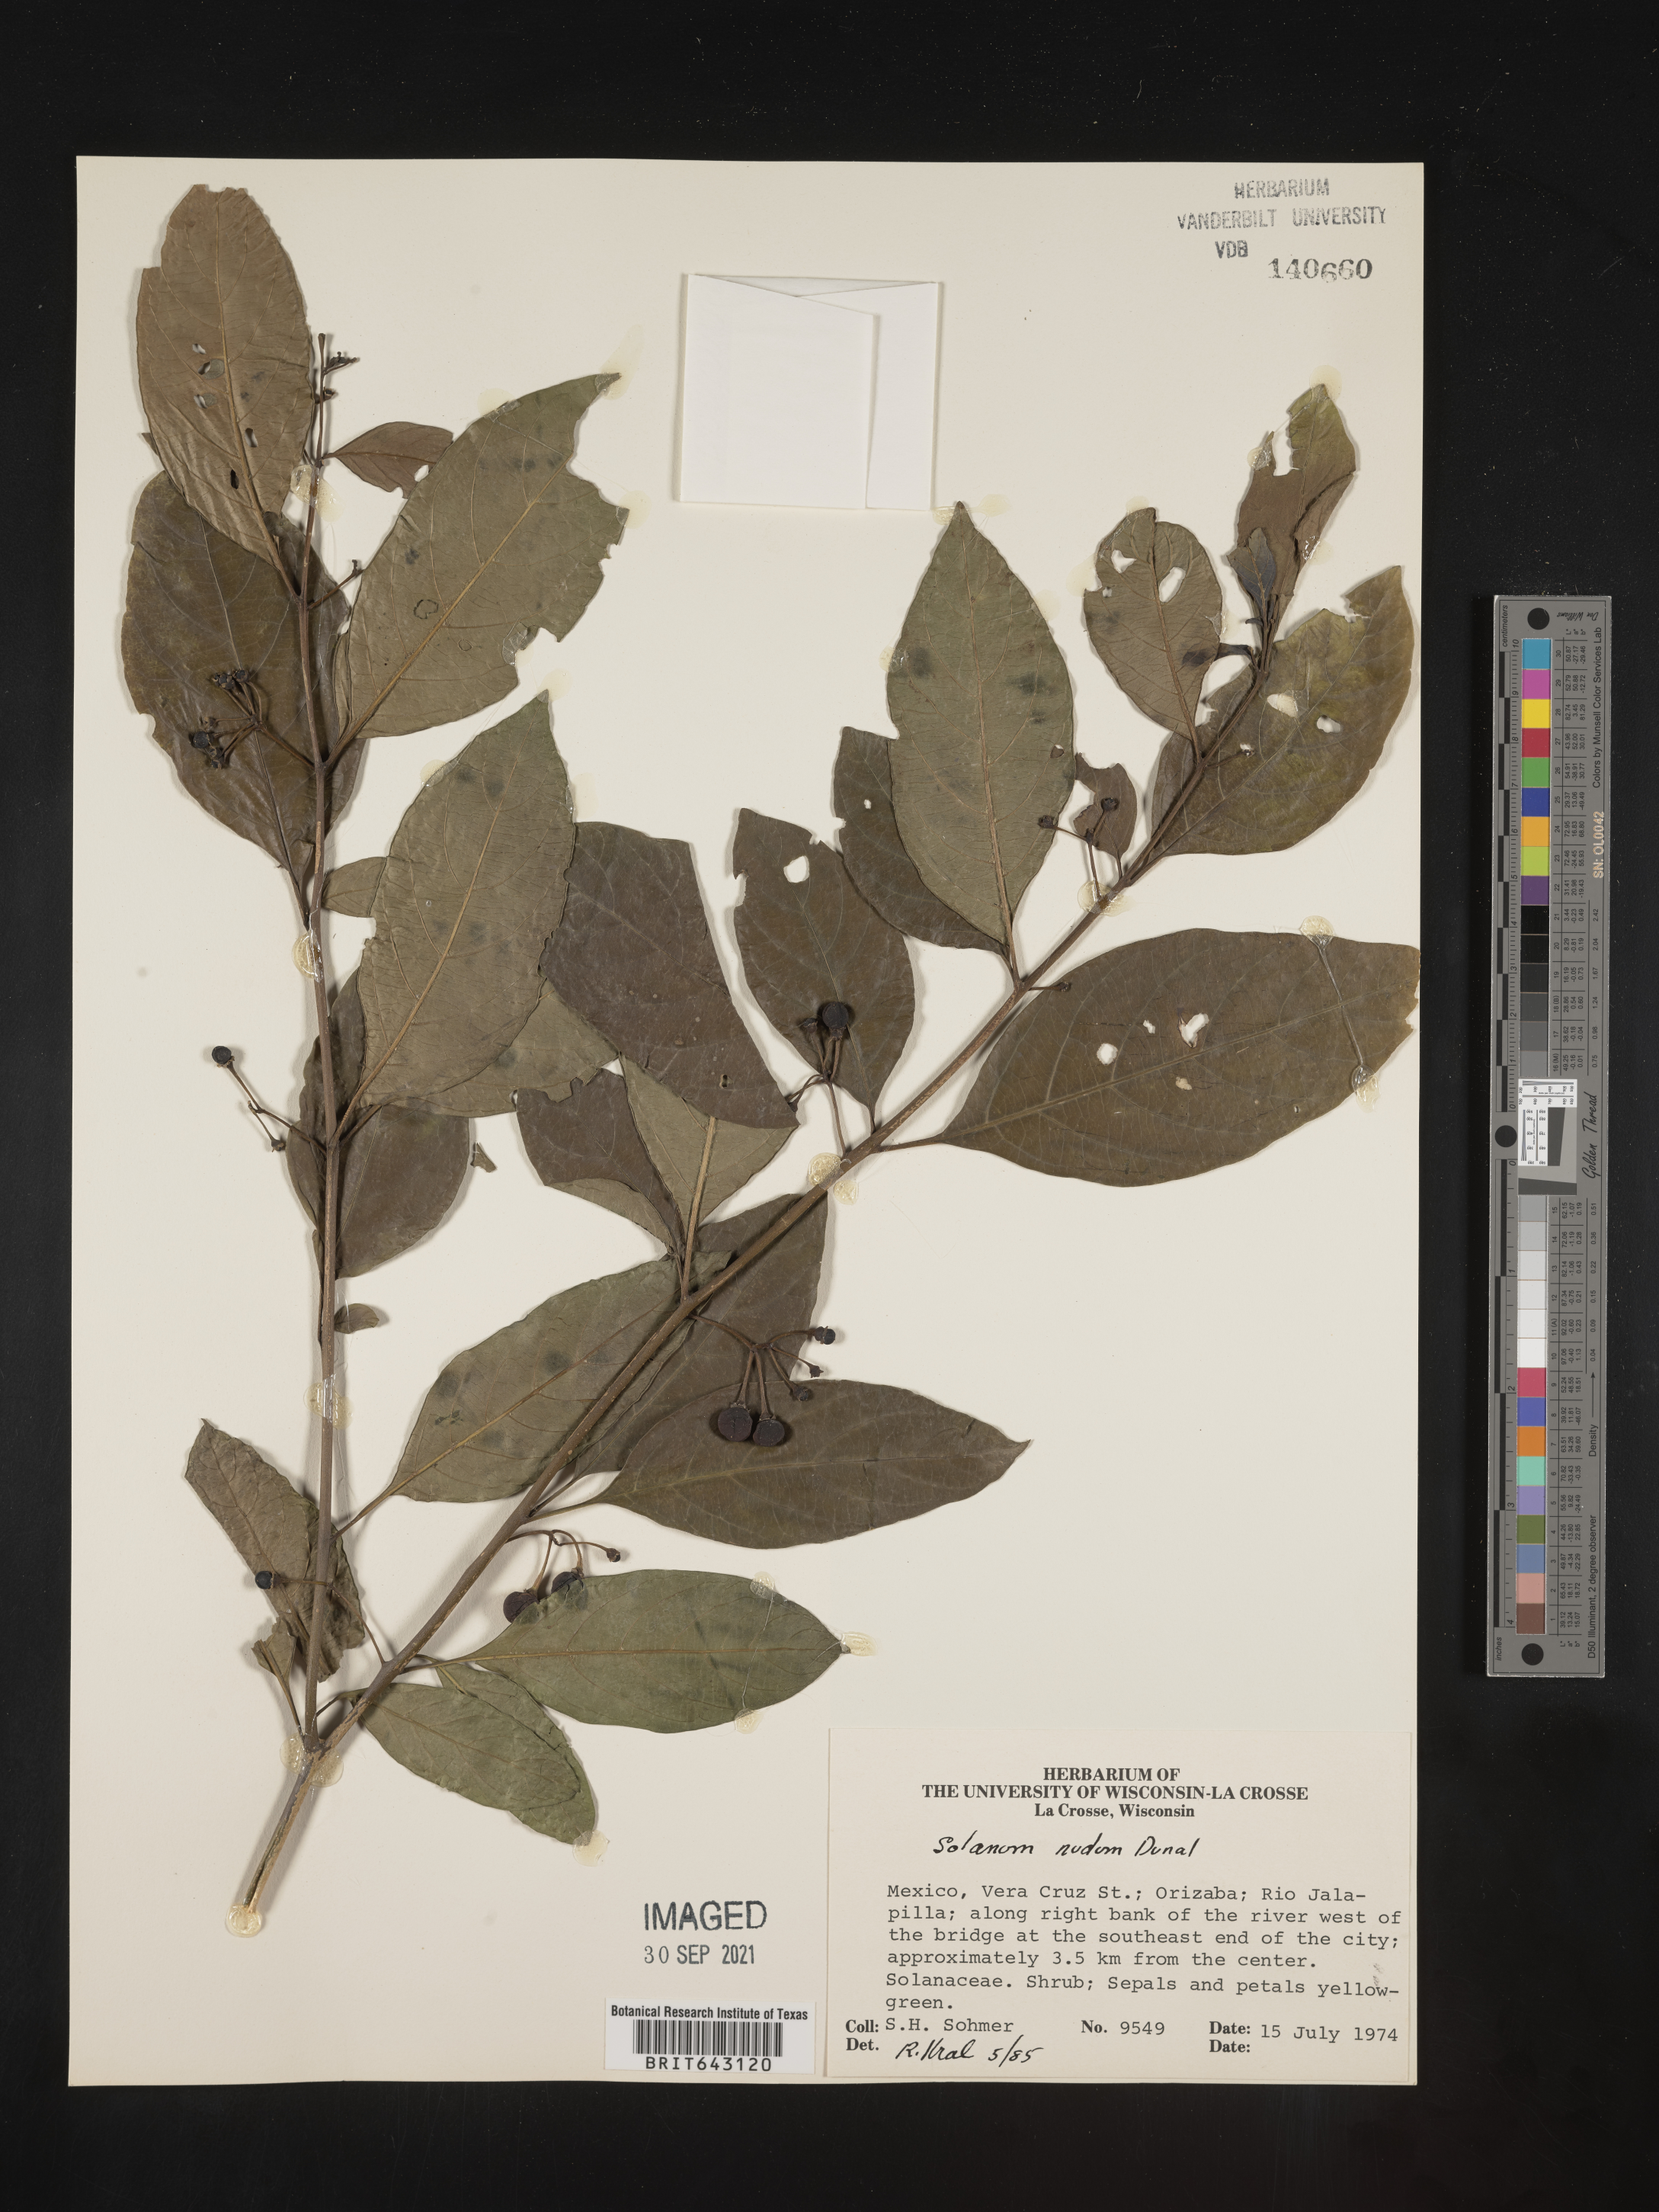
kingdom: Plantae
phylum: Tracheophyta
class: Magnoliopsida
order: Solanales
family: Solanaceae
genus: Solanum
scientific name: Solanum
